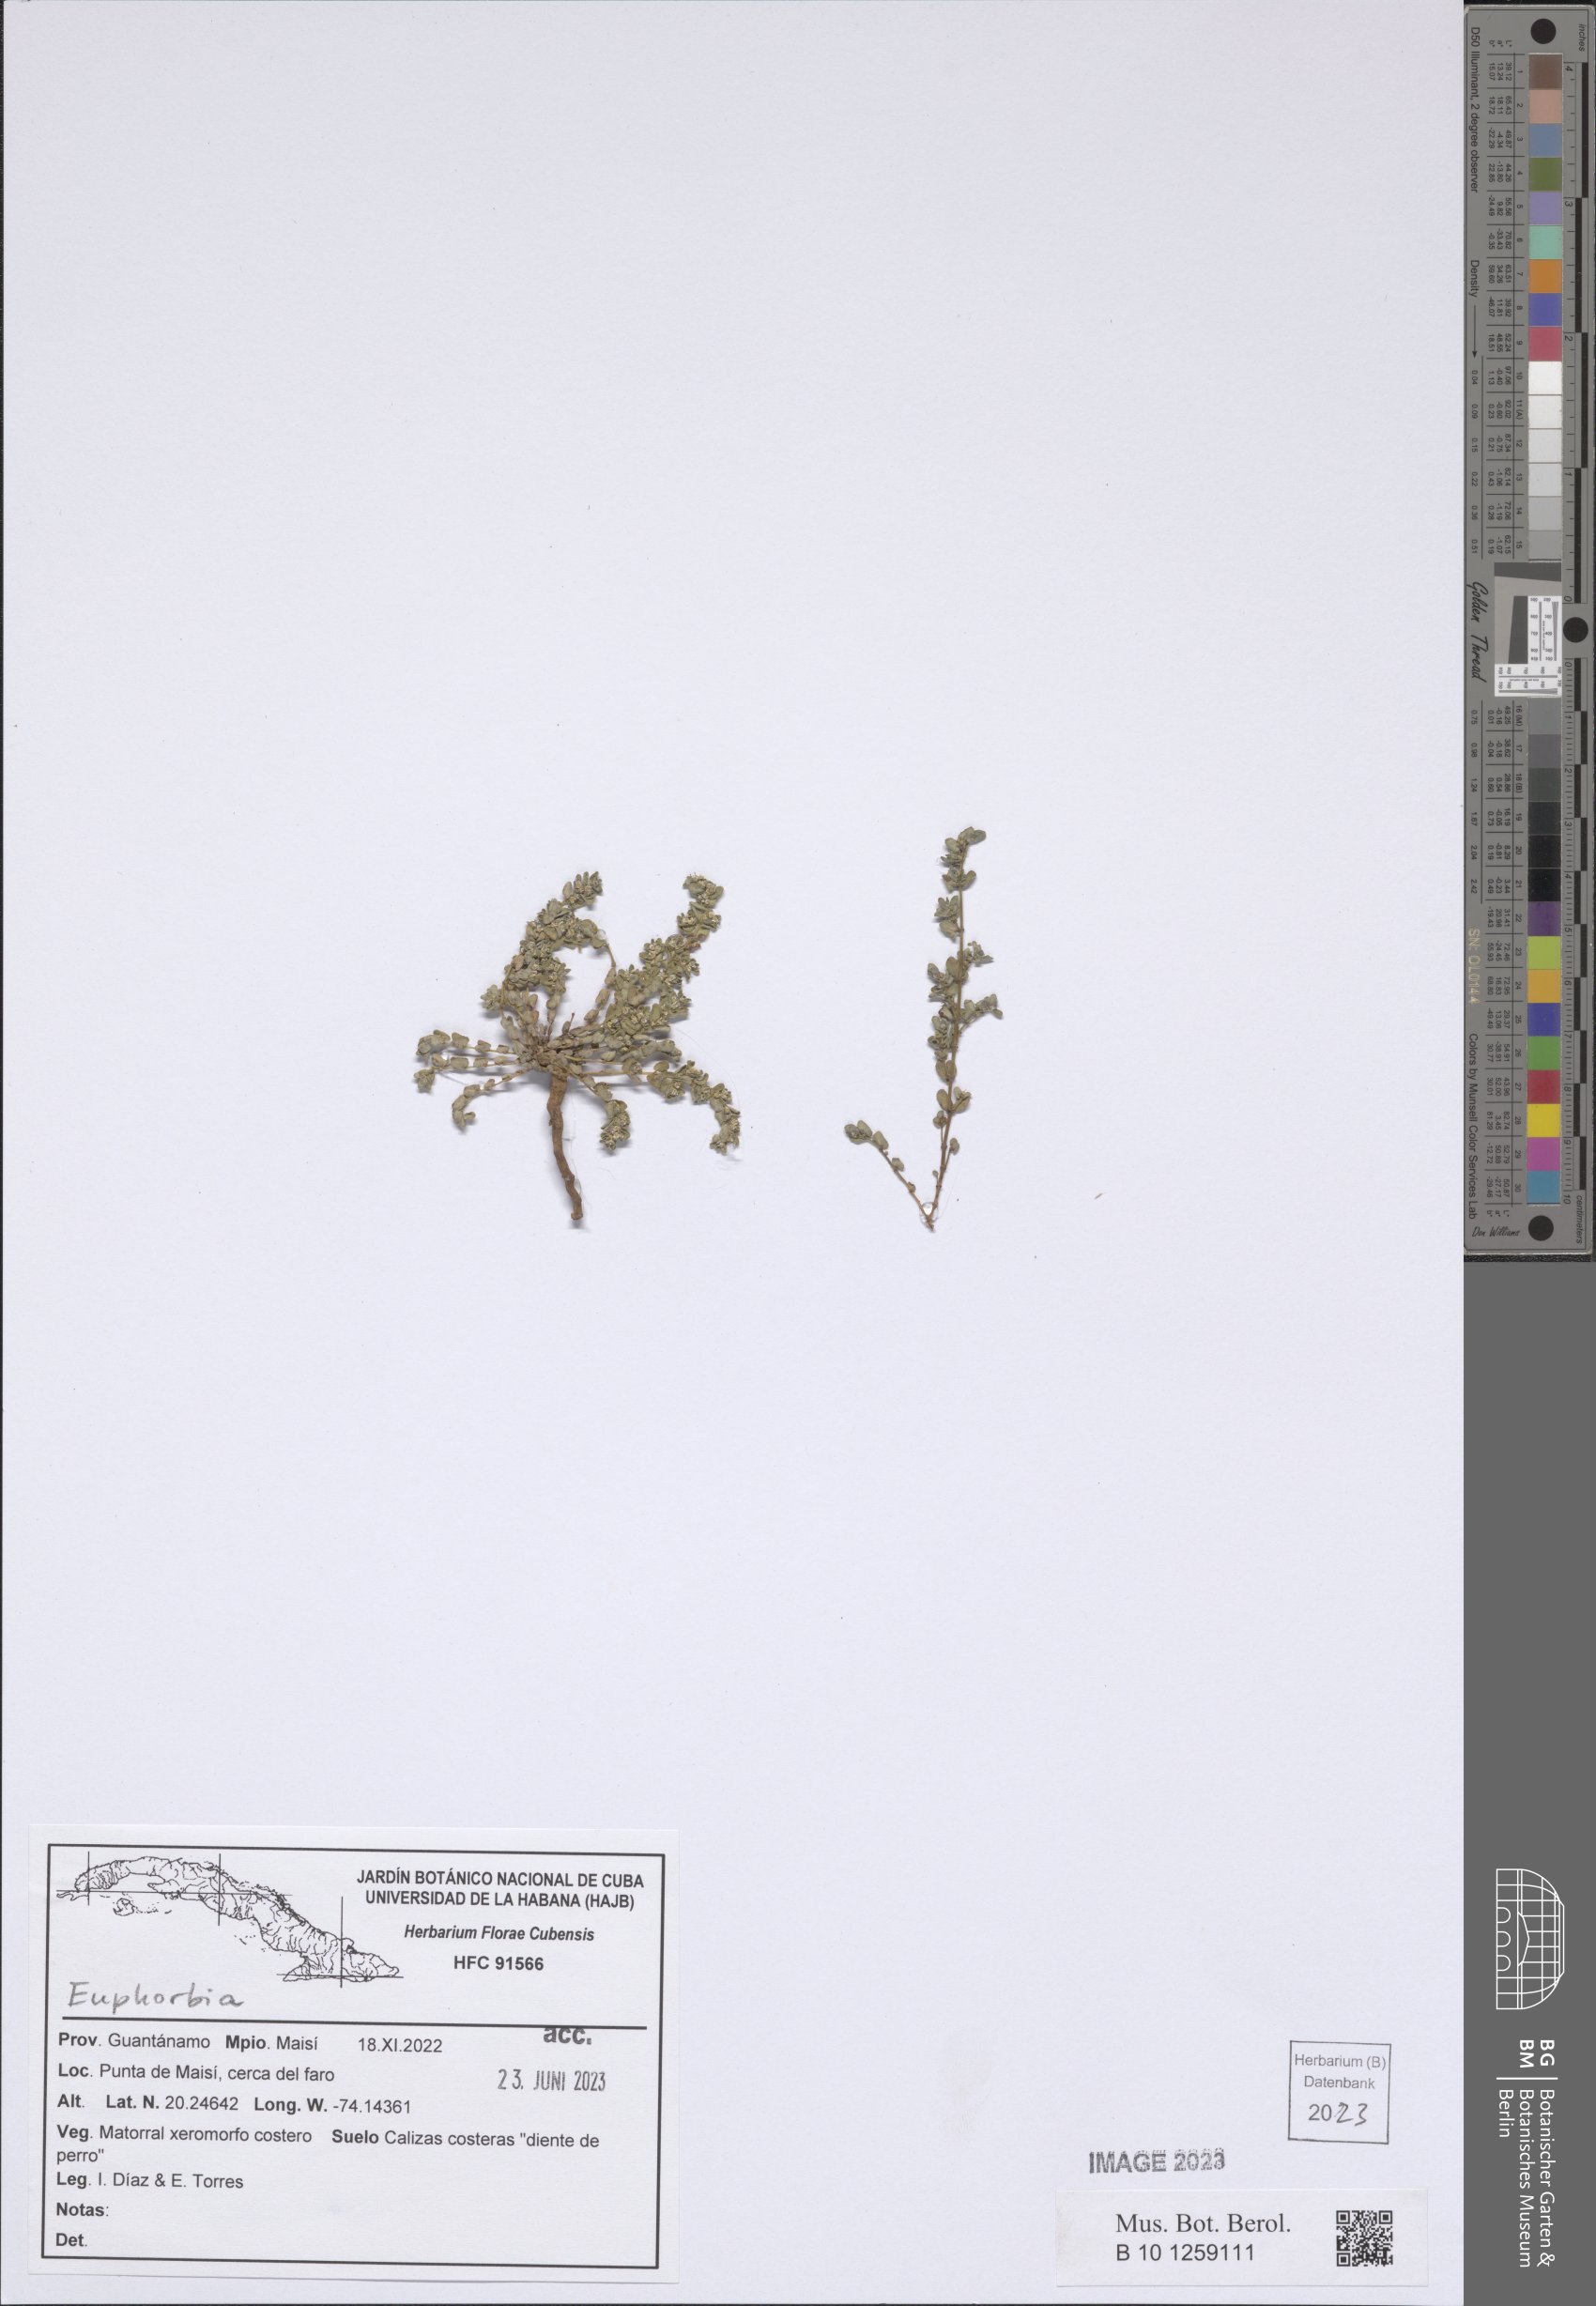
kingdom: Plantae
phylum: Tracheophyta
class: Magnoliopsida
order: Malpighiales
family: Euphorbiaceae
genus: Euphorbia
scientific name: Euphorbia
